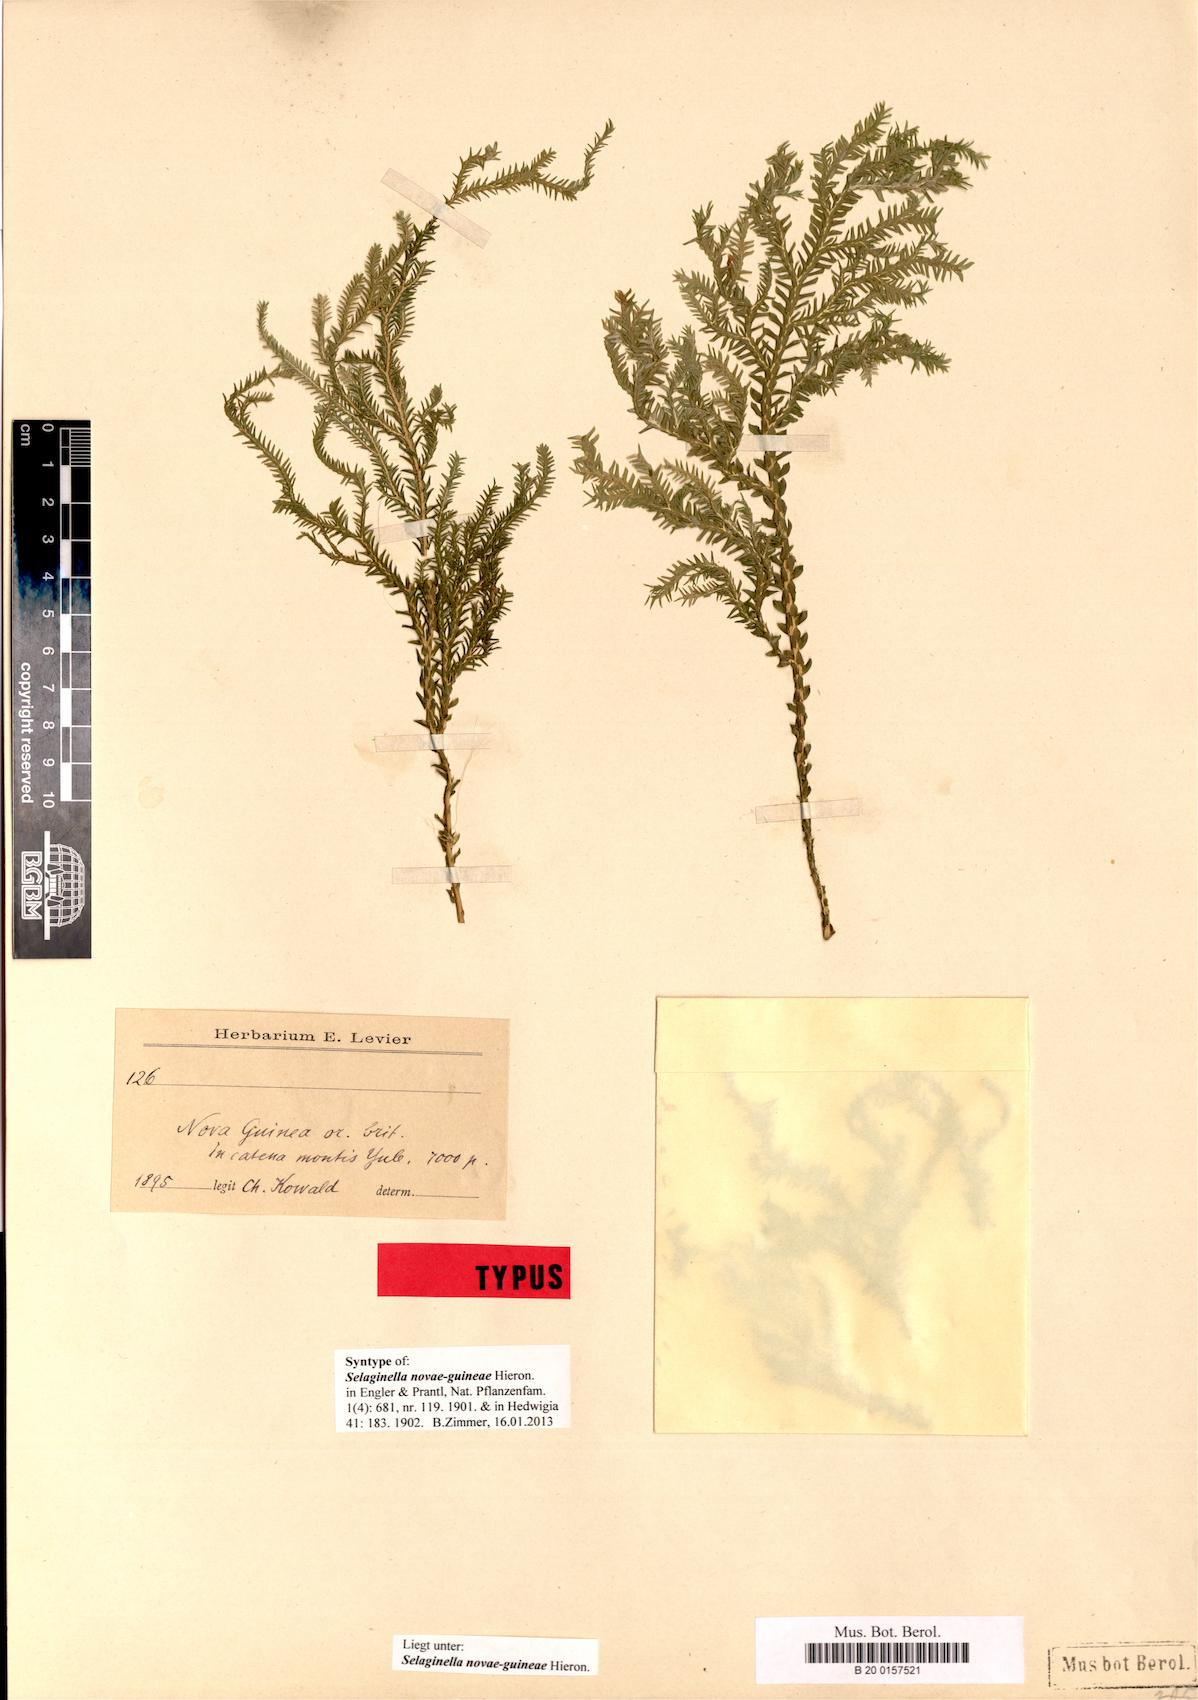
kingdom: Plantae
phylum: Tracheophyta
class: Lycopodiopsida
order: Selaginellales
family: Selaginellaceae
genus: Selaginella
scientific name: Selaginella novae-guineae
